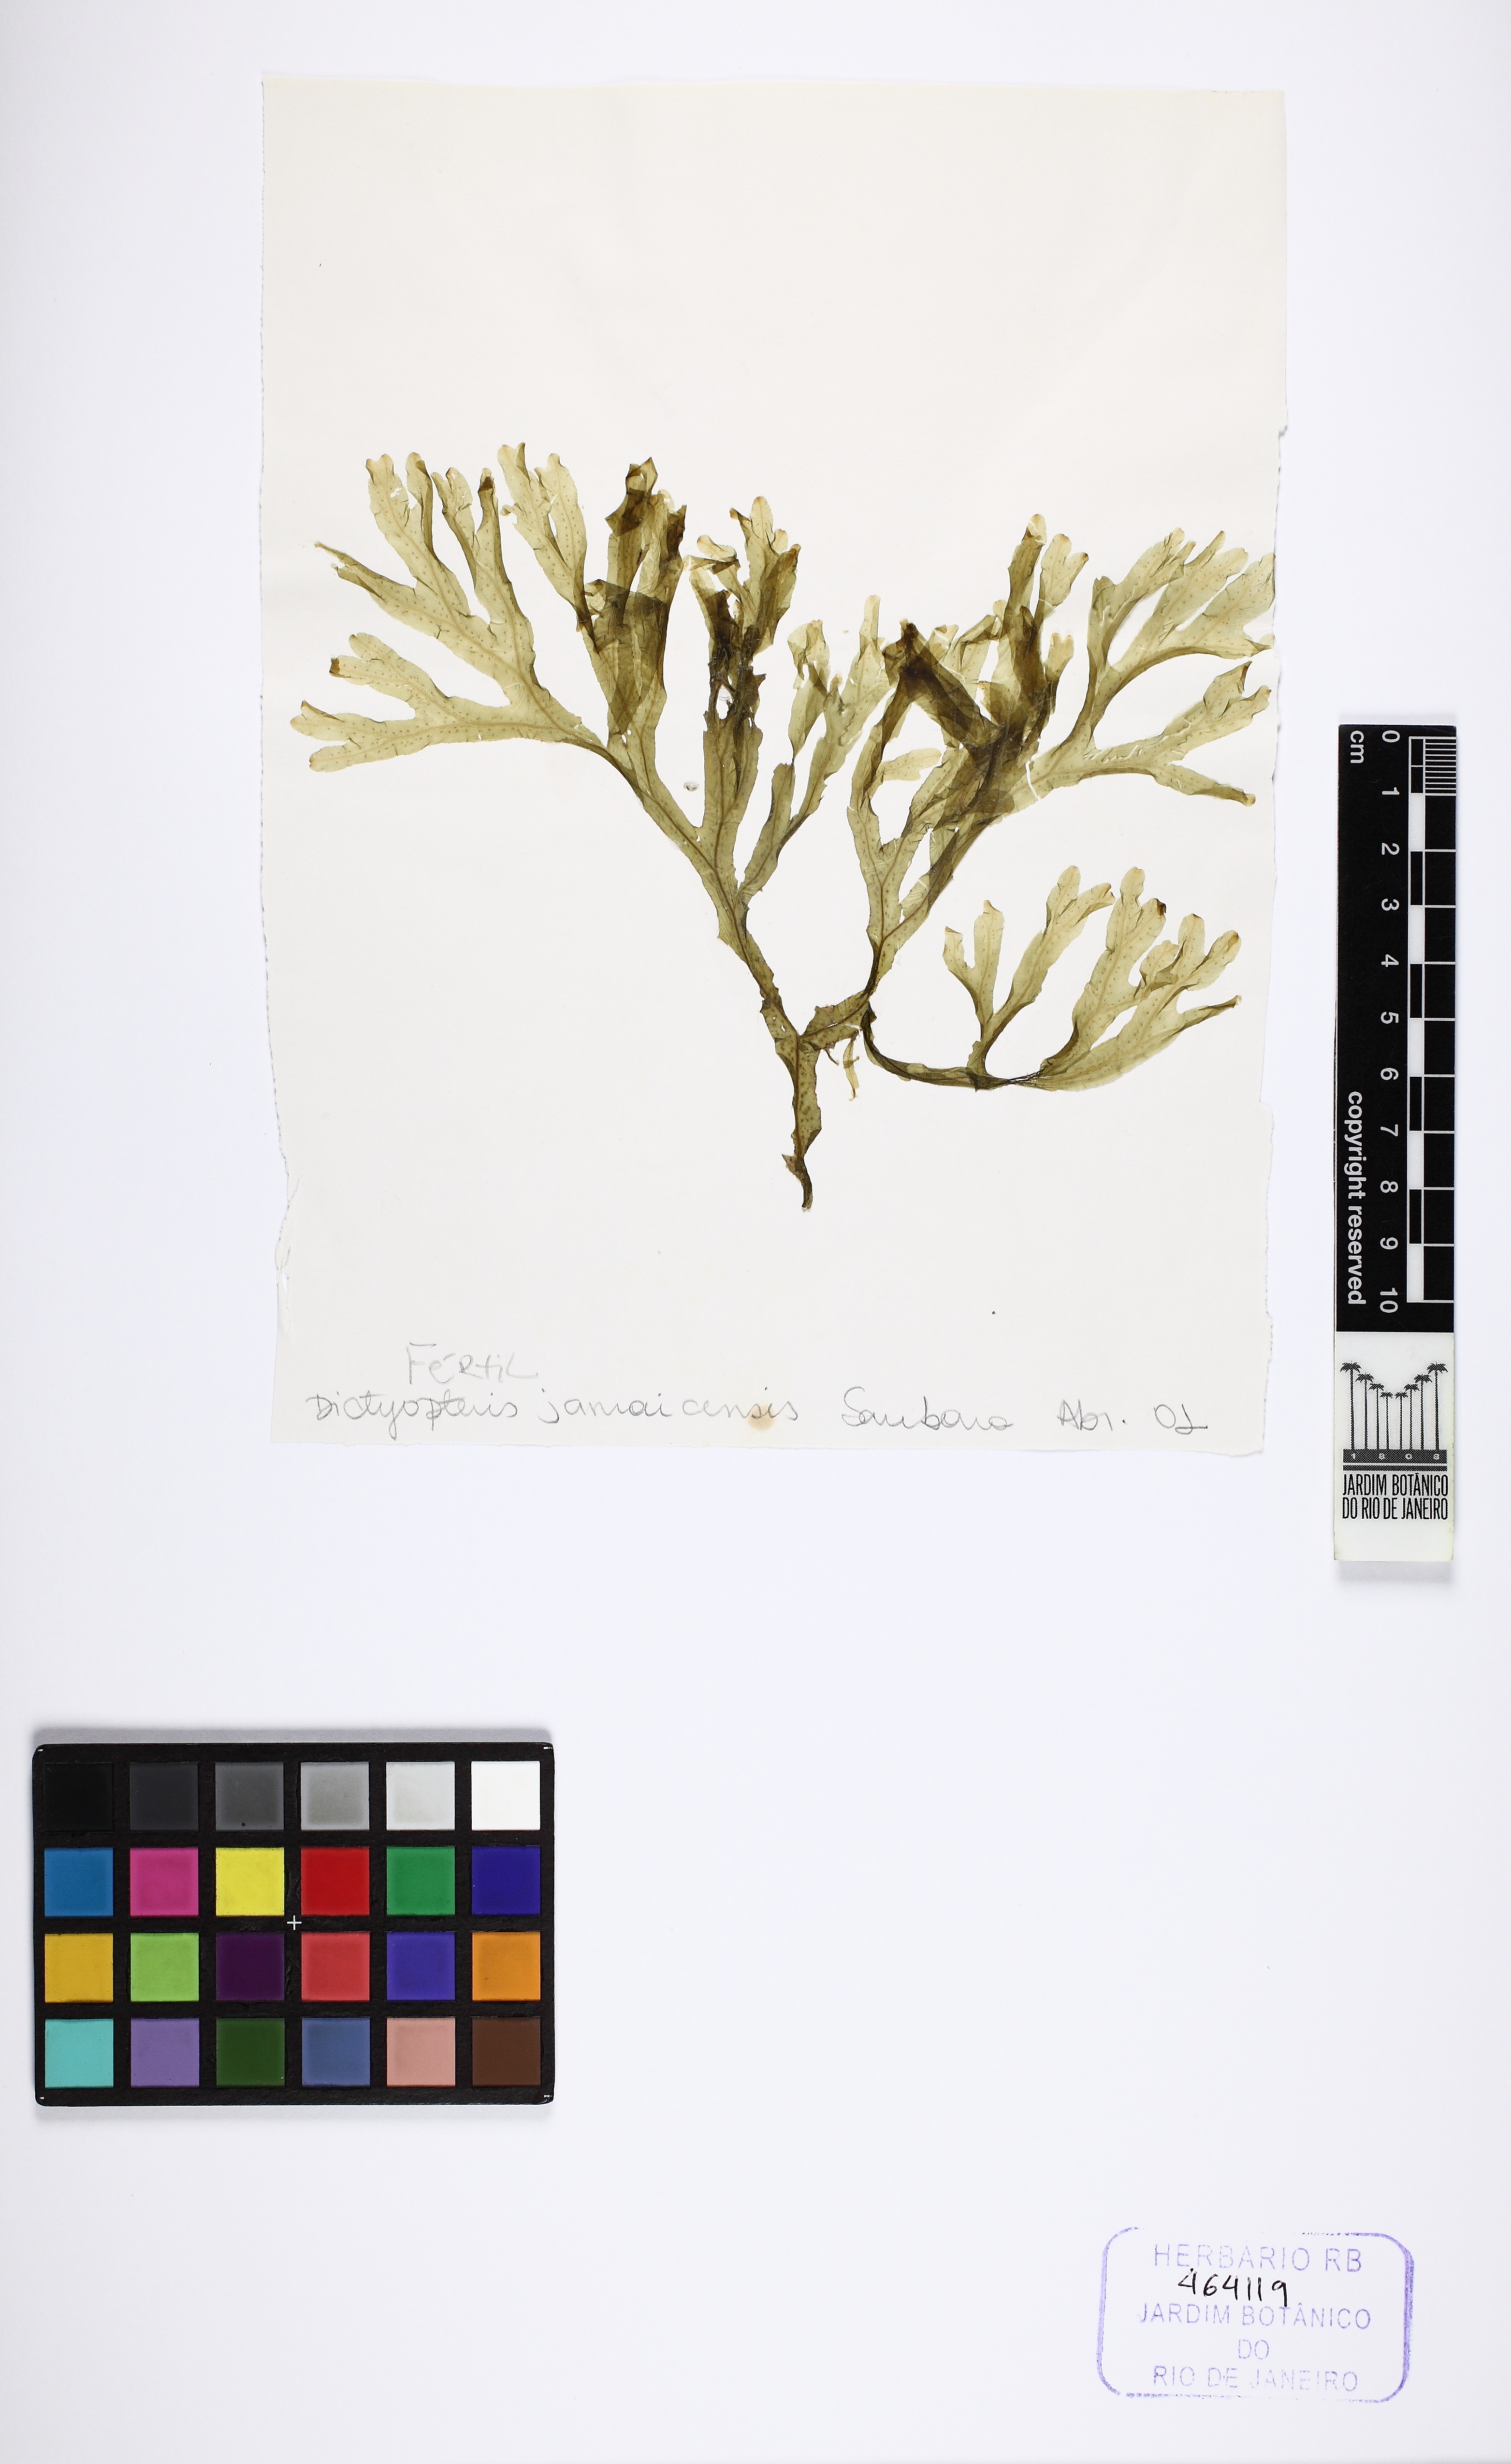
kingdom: Chromista
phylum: Ochrophyta
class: Phaeophyceae
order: Dictyotales
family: Dictyotaceae
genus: Dictyopteris
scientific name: Dictyopteris jamaicensis
